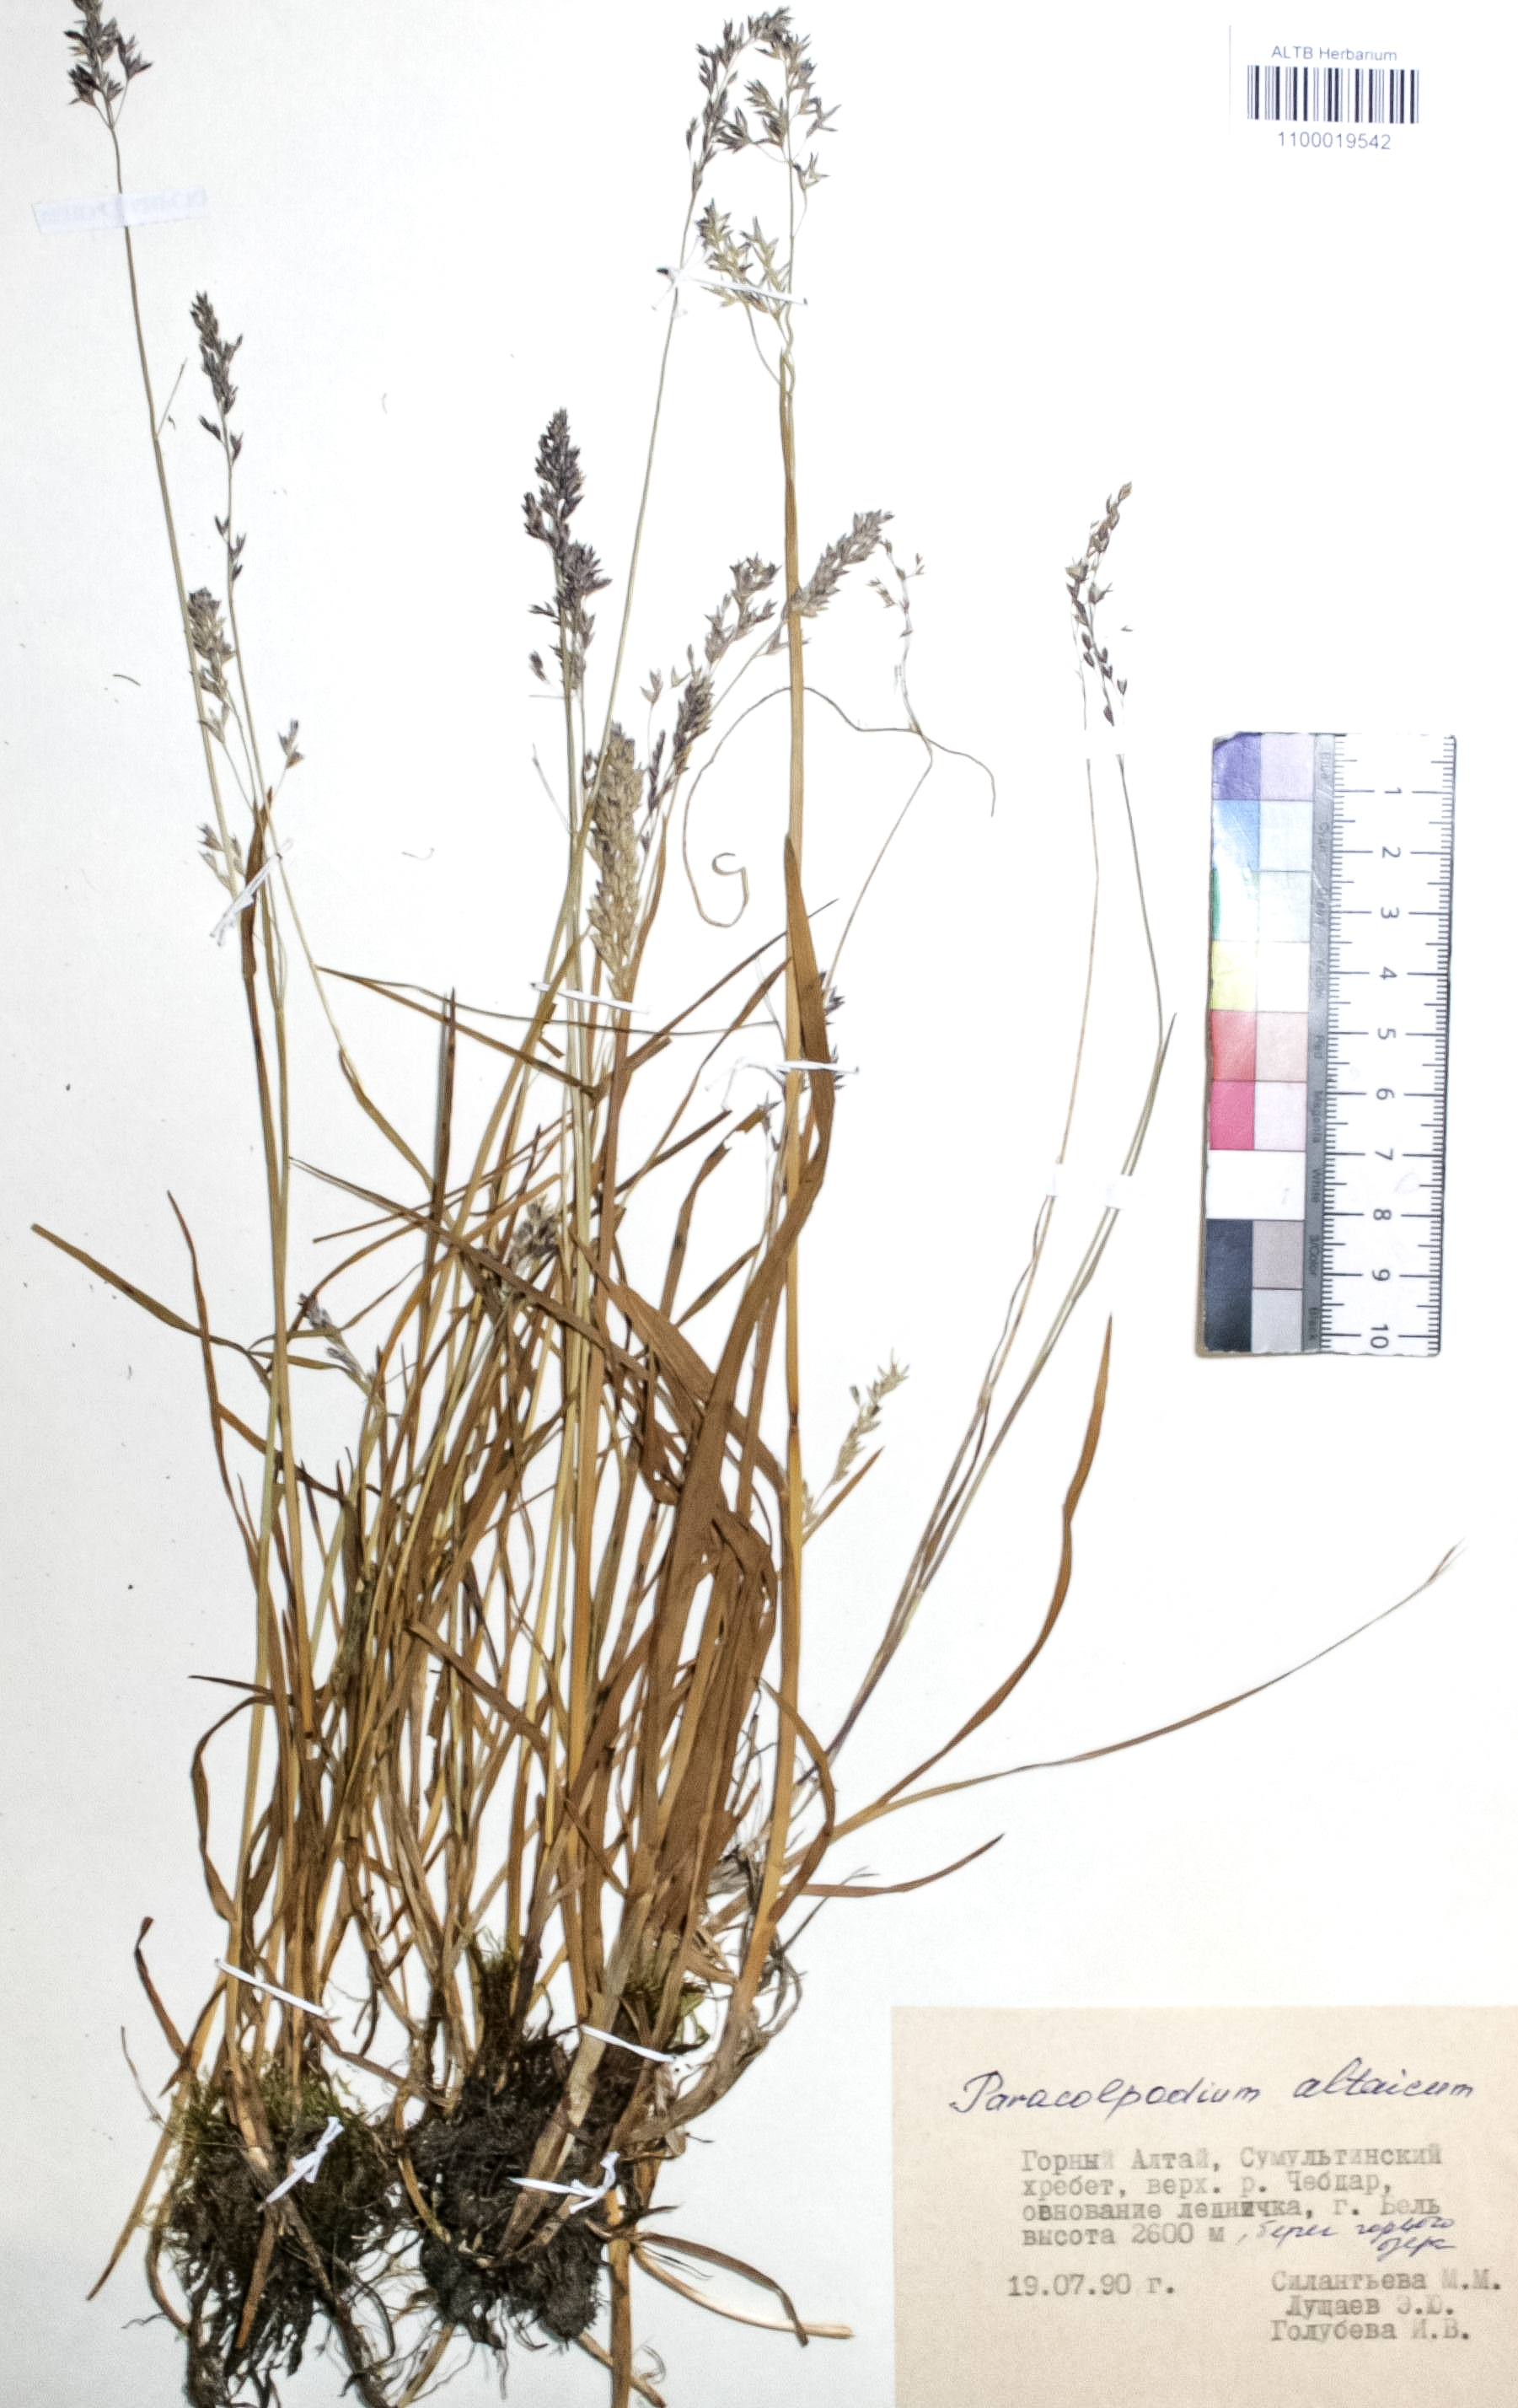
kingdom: Plantae
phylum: Tracheophyta
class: Liliopsida
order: Poales
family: Poaceae
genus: Paracolpodium
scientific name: Paracolpodium altaicum
